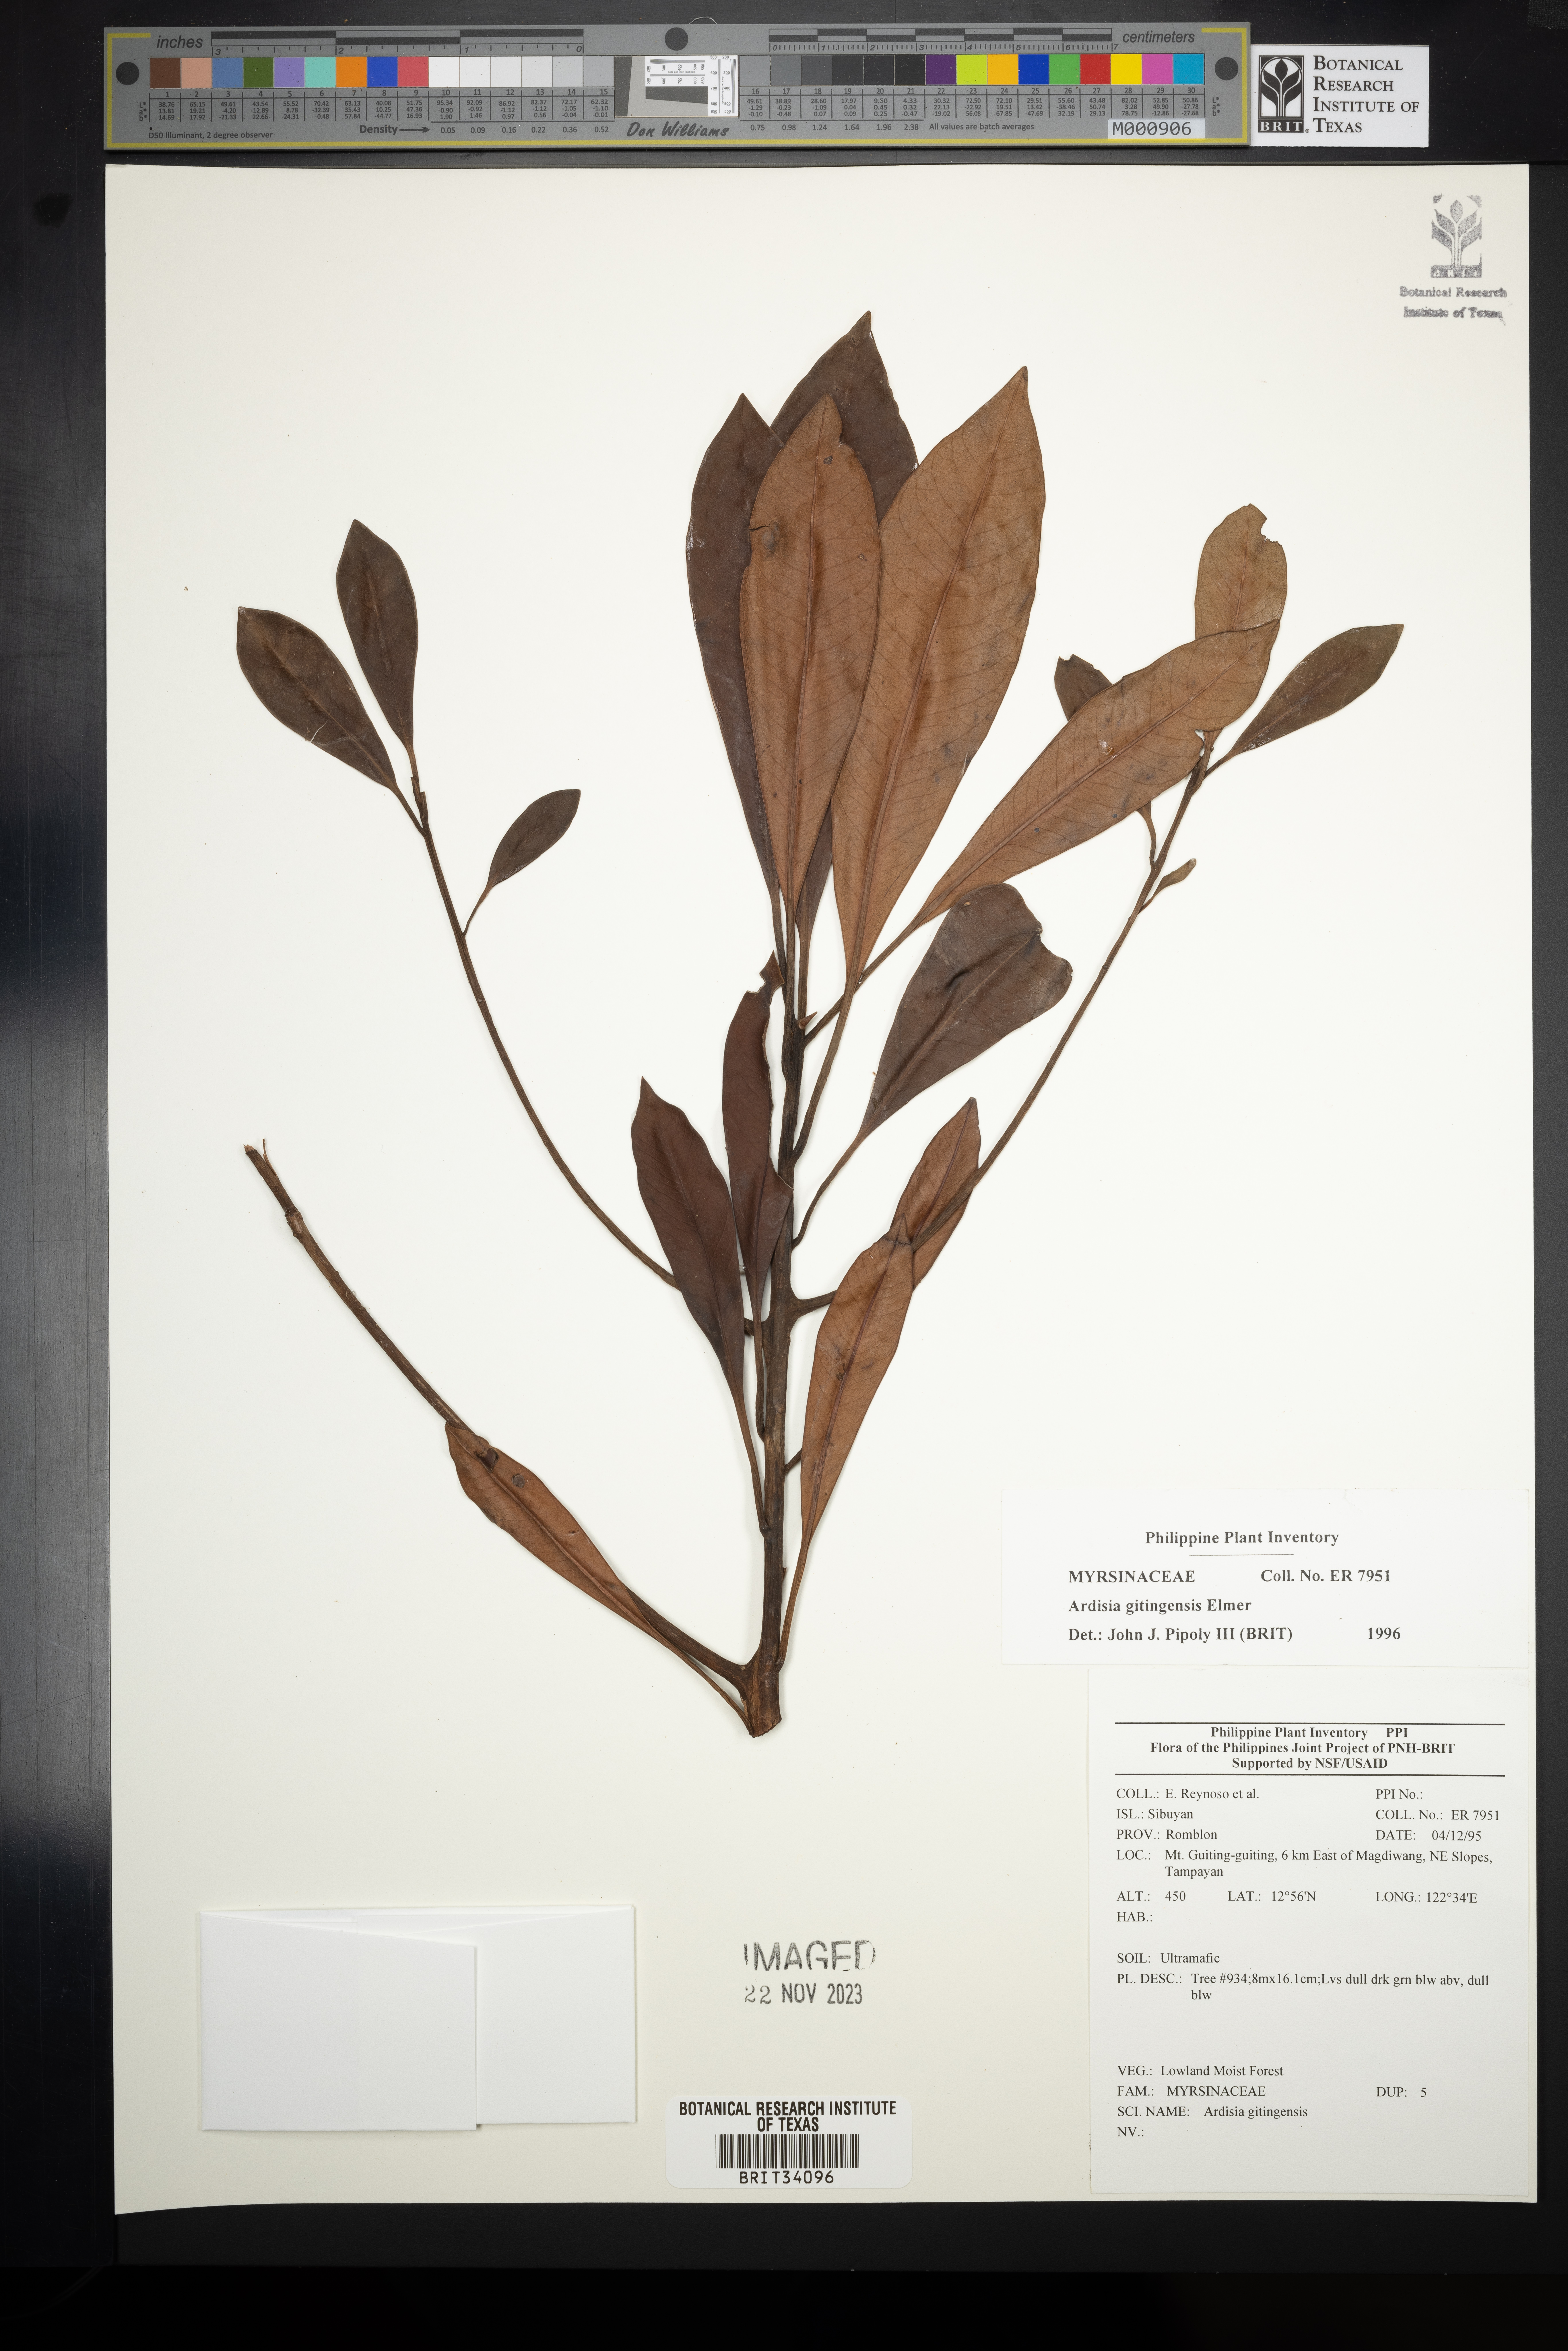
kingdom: Plantae
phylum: Tracheophyta
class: Magnoliopsida
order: Ericales
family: Primulaceae
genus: Ardisia
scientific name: Ardisia darlingii
